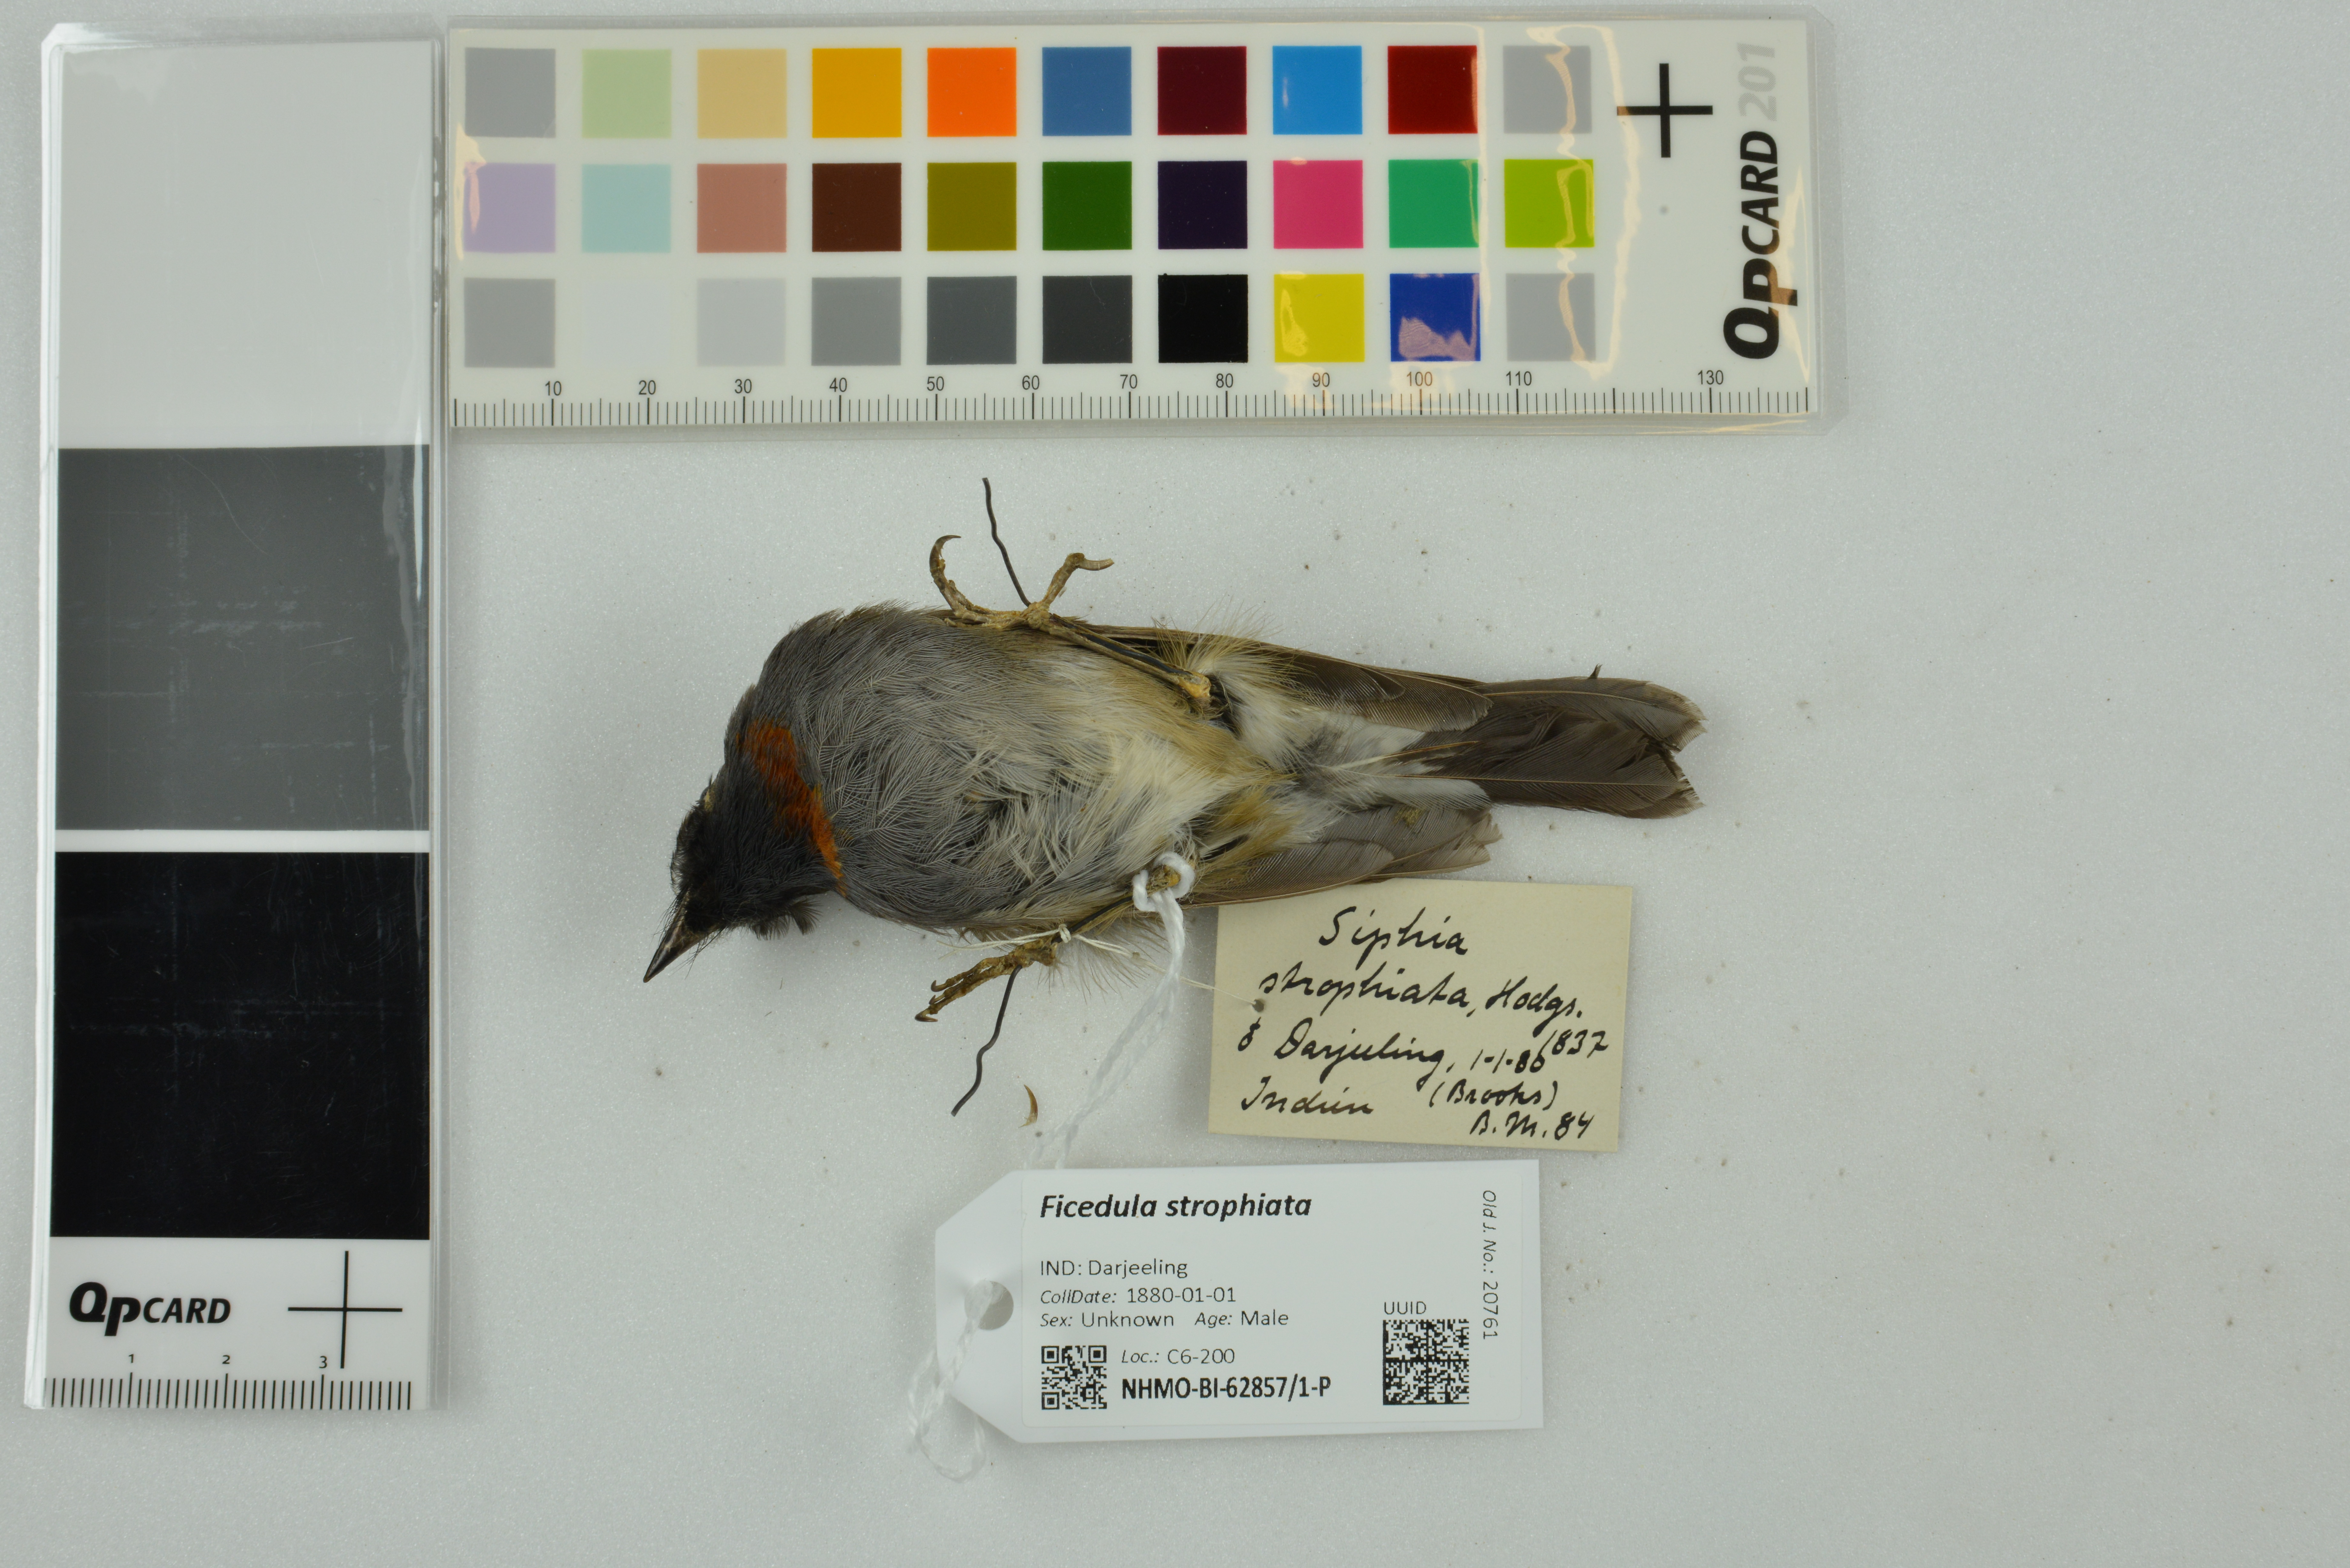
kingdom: Animalia
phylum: Chordata
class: Aves
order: Passeriformes
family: Muscicapidae
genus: Ficedula
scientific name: Ficedula strophiata
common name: Rufous-gorgeted flycatcher
